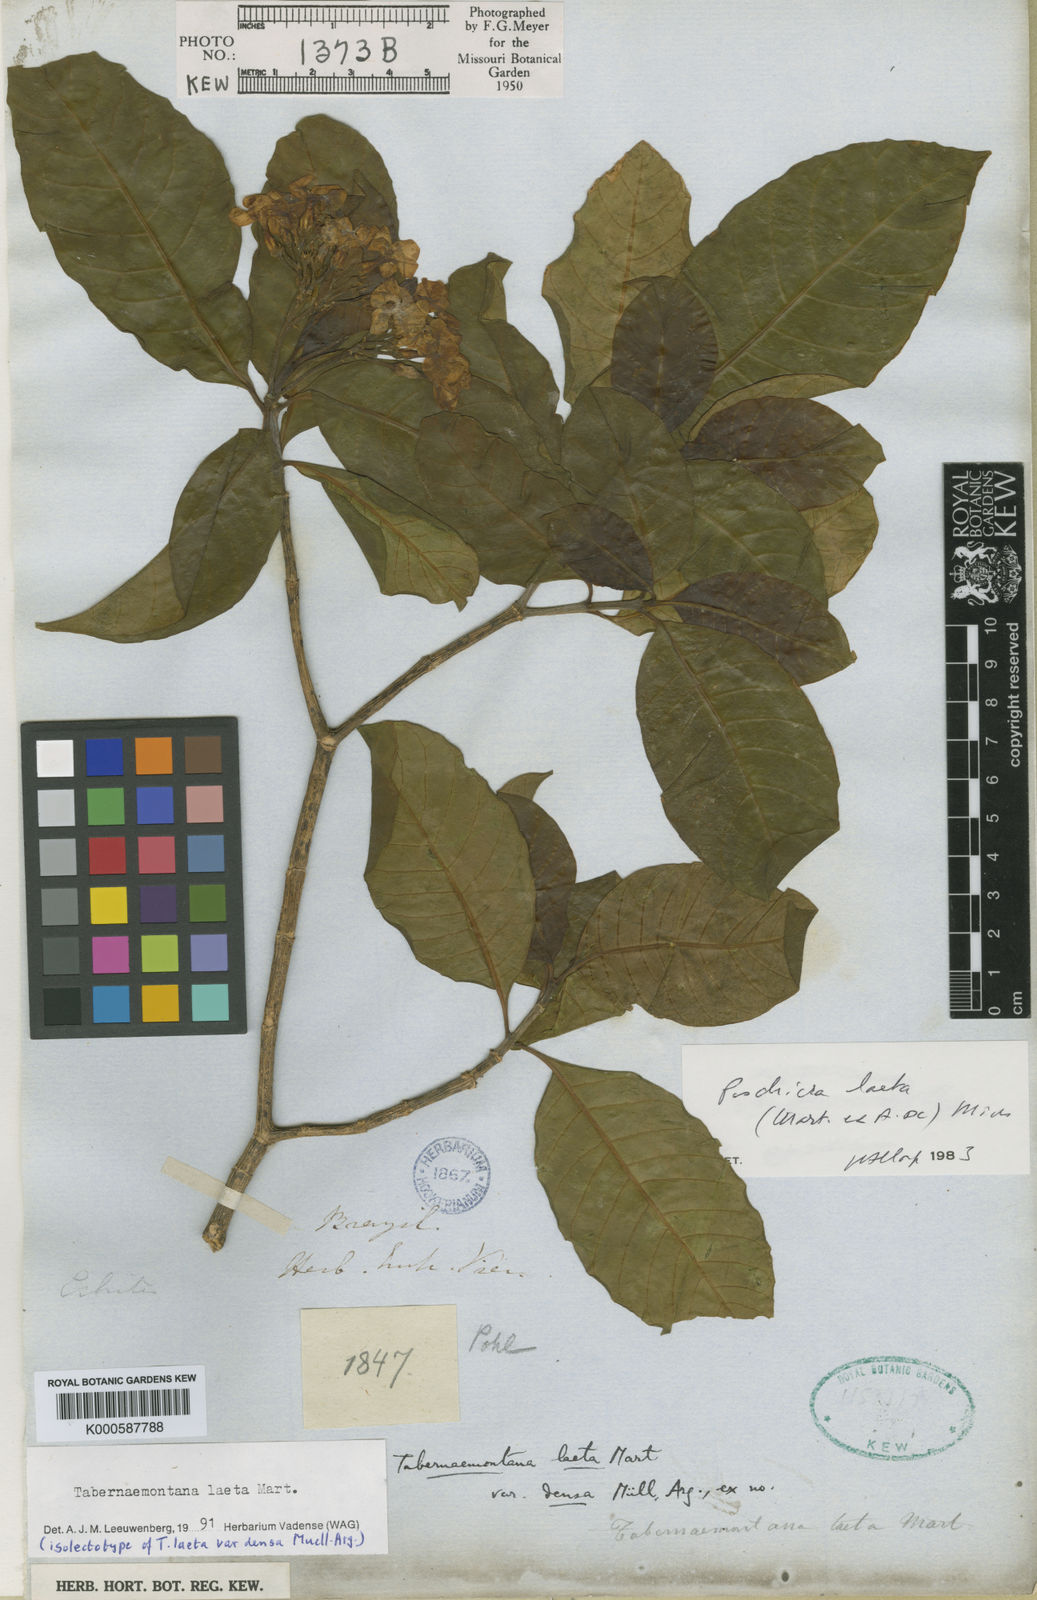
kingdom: Plantae
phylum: Tracheophyta
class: Magnoliopsida
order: Gentianales
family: Apocynaceae
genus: Tabernaemontana
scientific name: Tabernaemontana laeta
